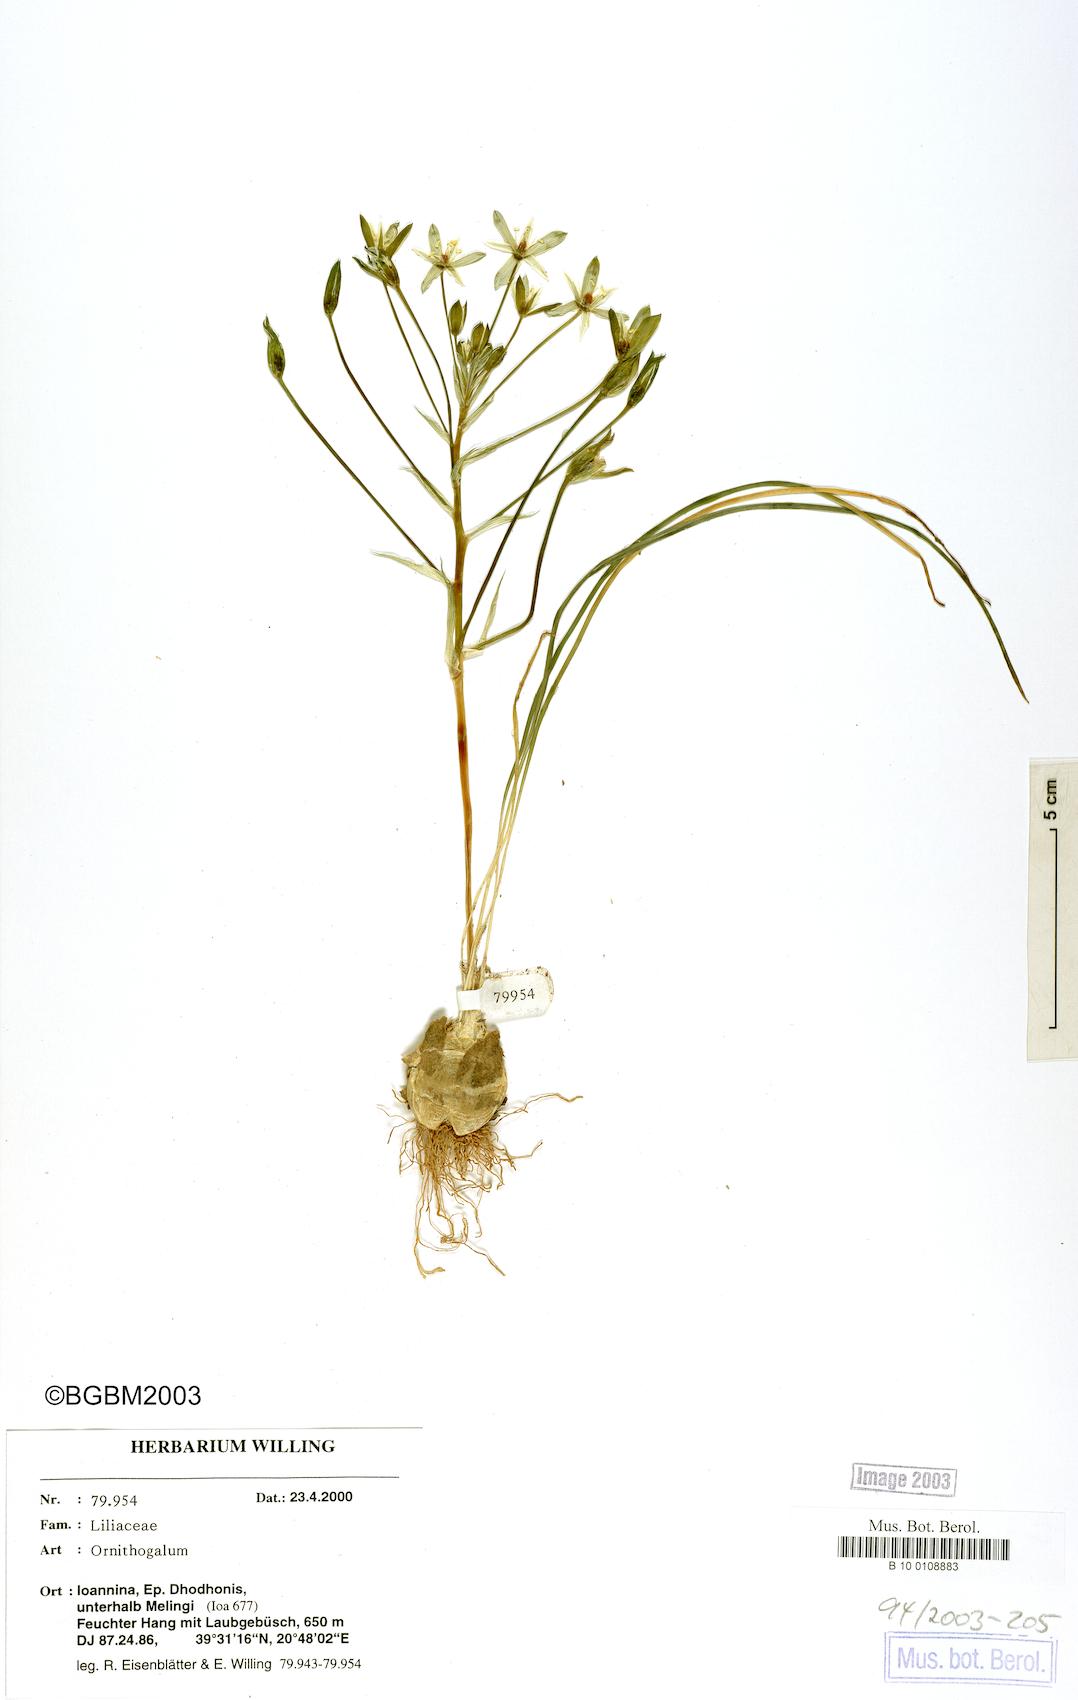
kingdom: Plantae
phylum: Tracheophyta
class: Liliopsida
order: Asparagales
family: Asparagaceae
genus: Ornithogalum
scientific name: Ornithogalum
